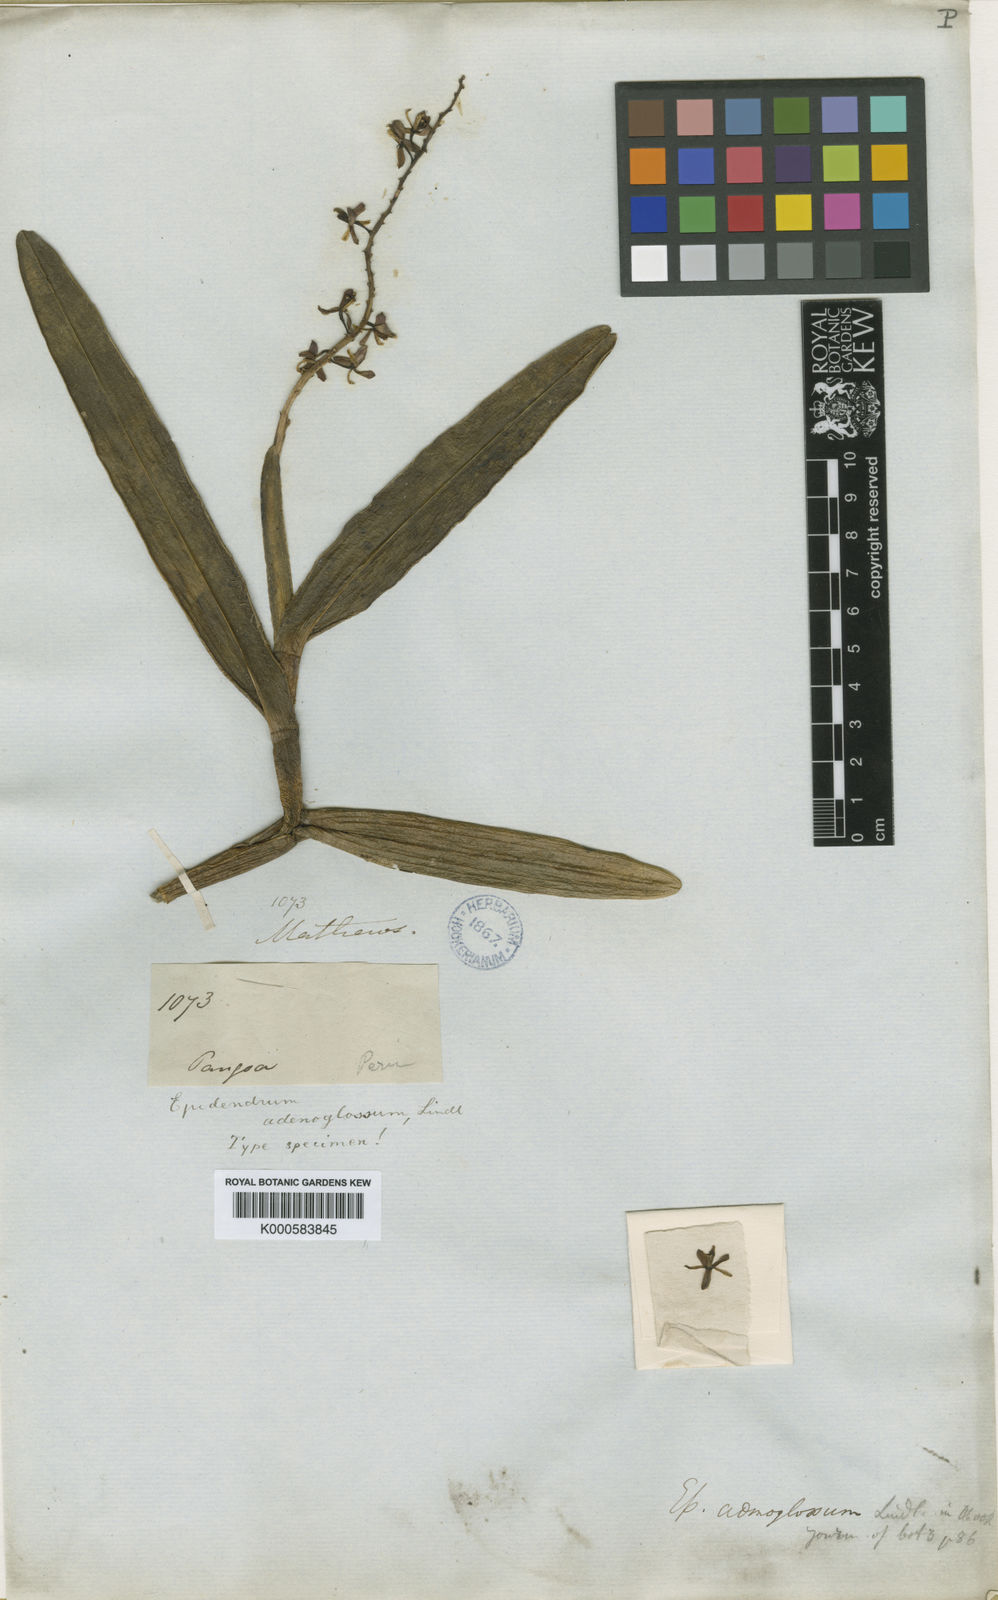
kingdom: Plantae
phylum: Tracheophyta
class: Liliopsida
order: Asparagales
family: Orchidaceae
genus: Epidendrum
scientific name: Epidendrum adenoglossum
